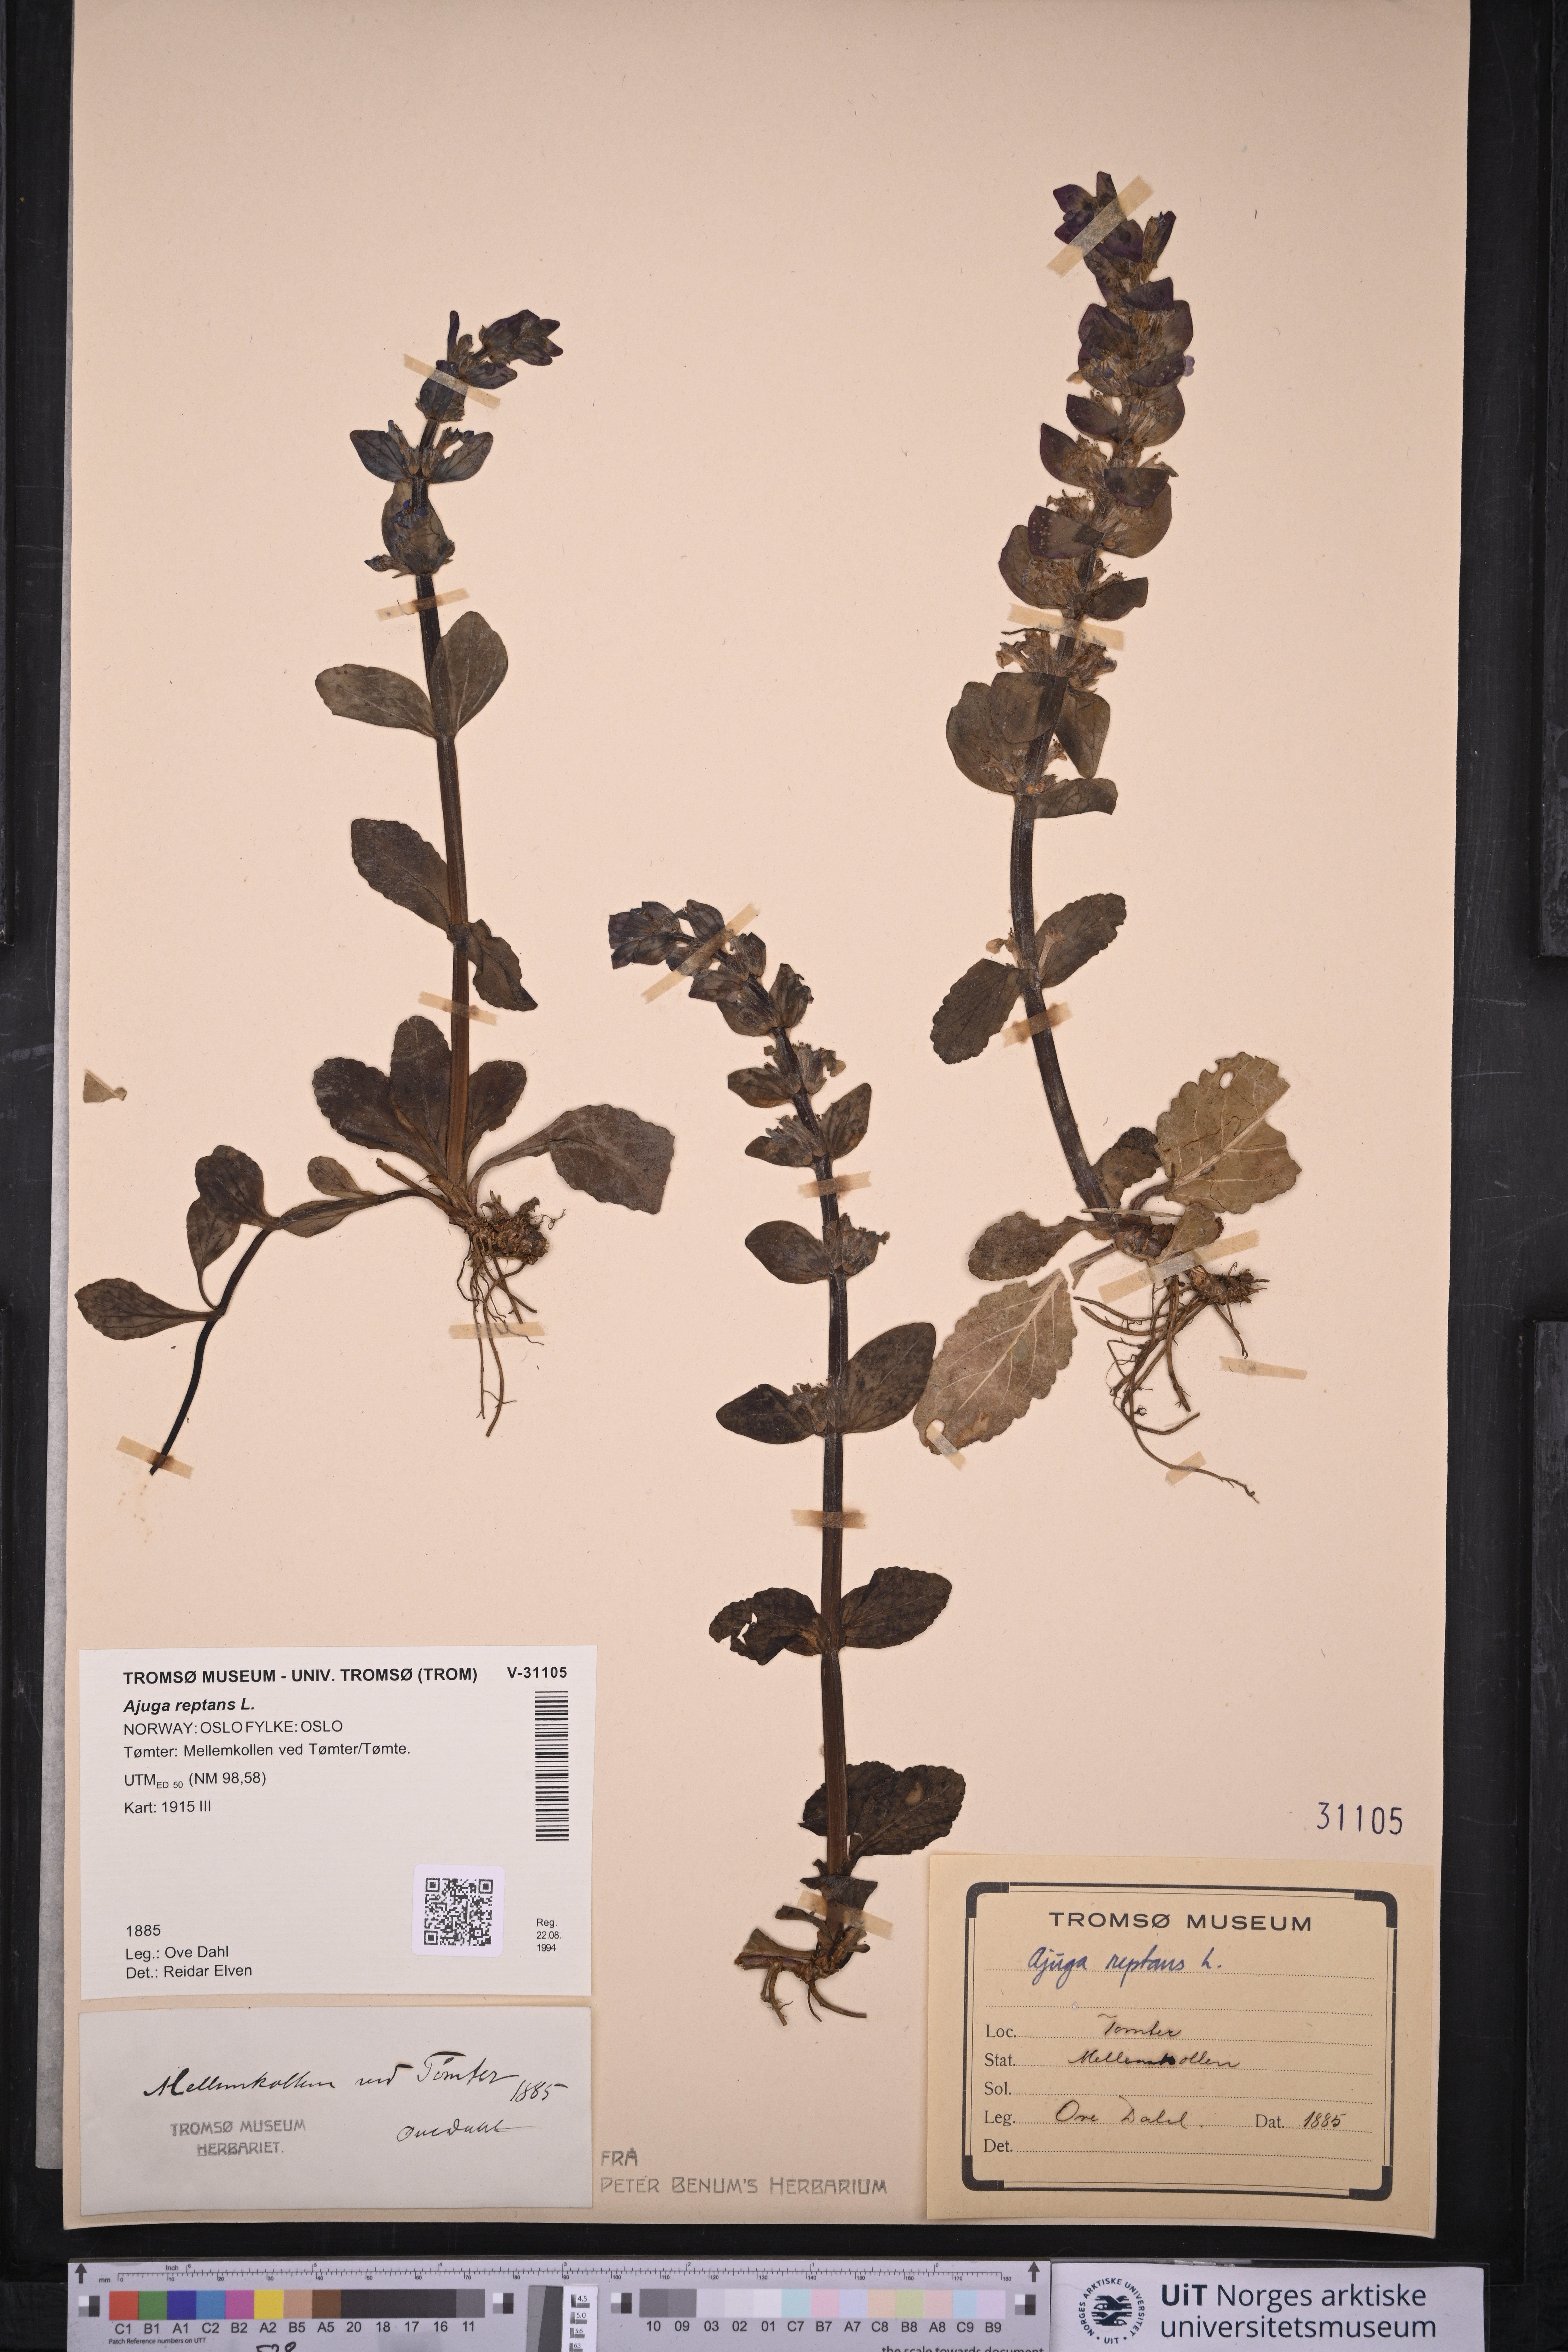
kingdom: Plantae
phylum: Tracheophyta
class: Magnoliopsida
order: Lamiales
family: Lamiaceae
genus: Ajuga
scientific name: Ajuga reptans
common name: Bugle
